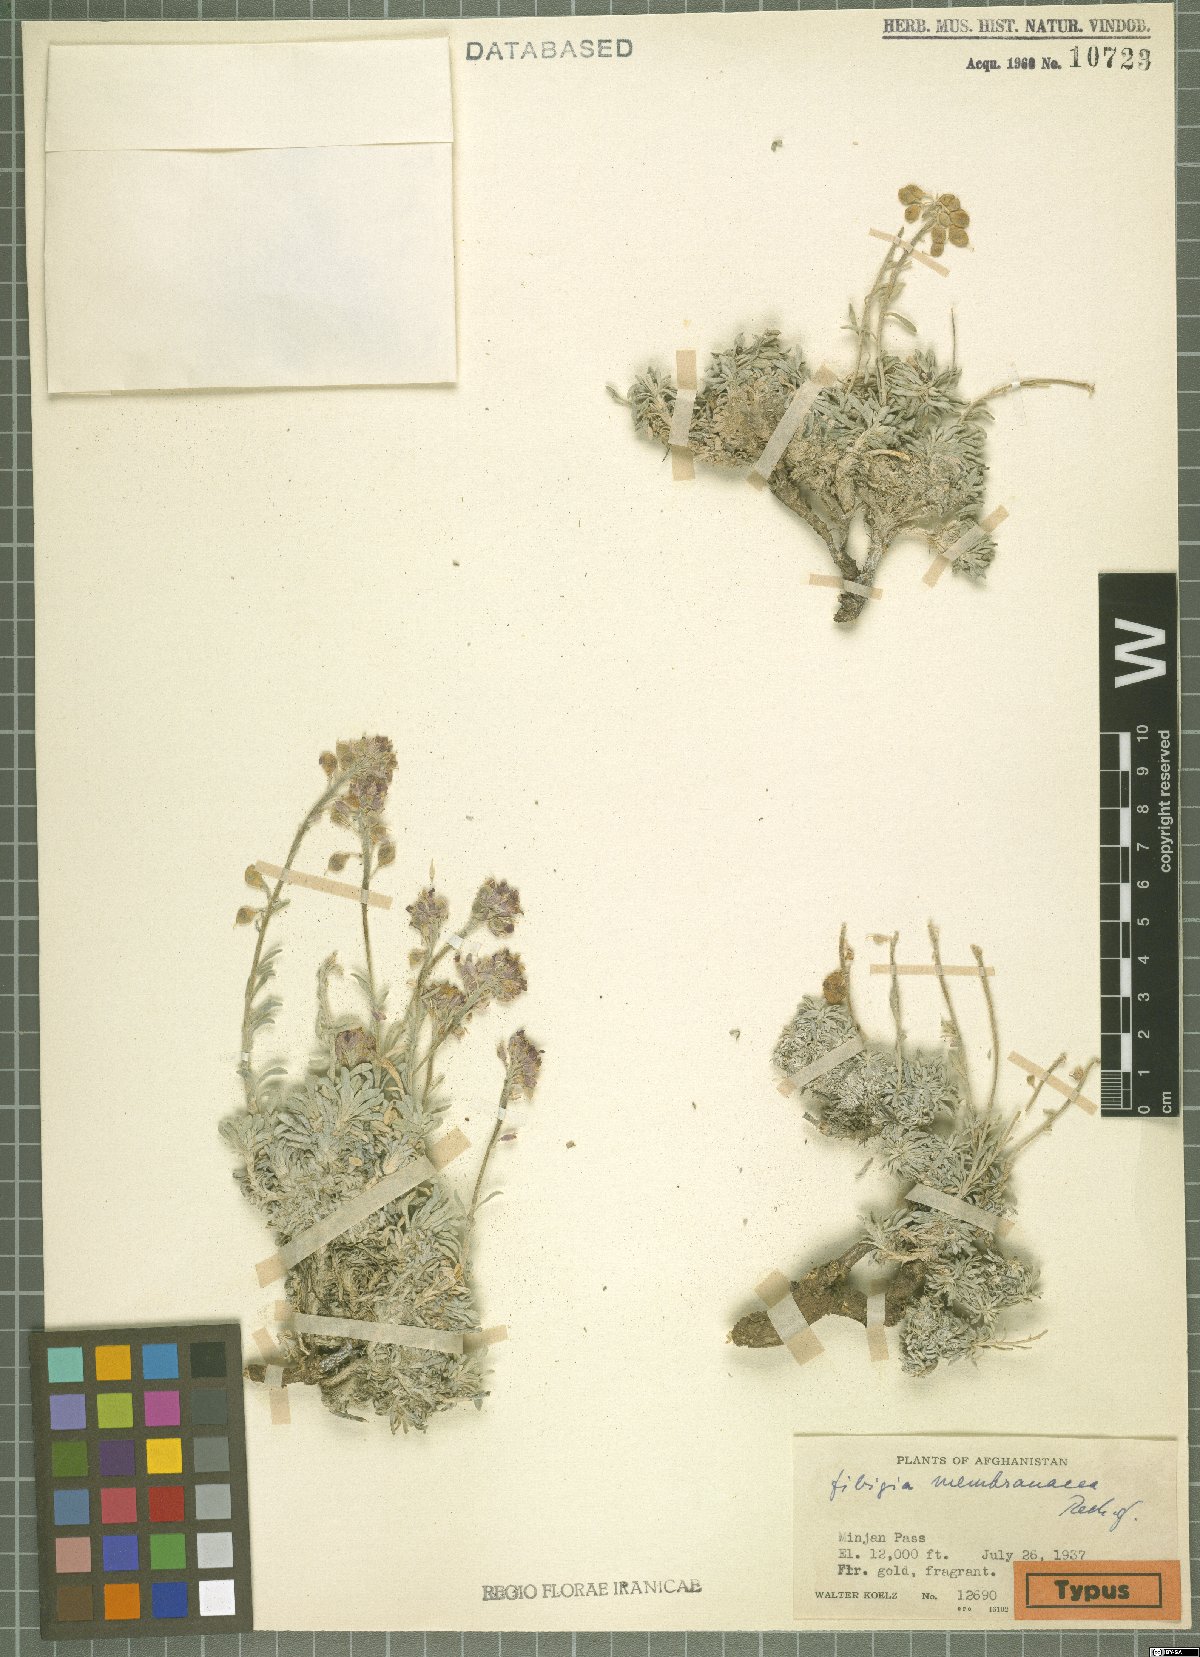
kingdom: Plantae
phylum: Tracheophyta
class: Magnoliopsida
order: Brassicales
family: Brassicaceae
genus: Irania
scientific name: Irania membranacea
